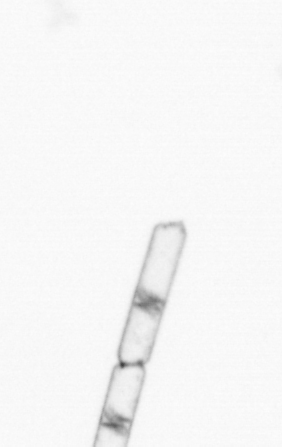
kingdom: Chromista
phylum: Ochrophyta
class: Bacillariophyceae
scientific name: Bacillariophyceae
